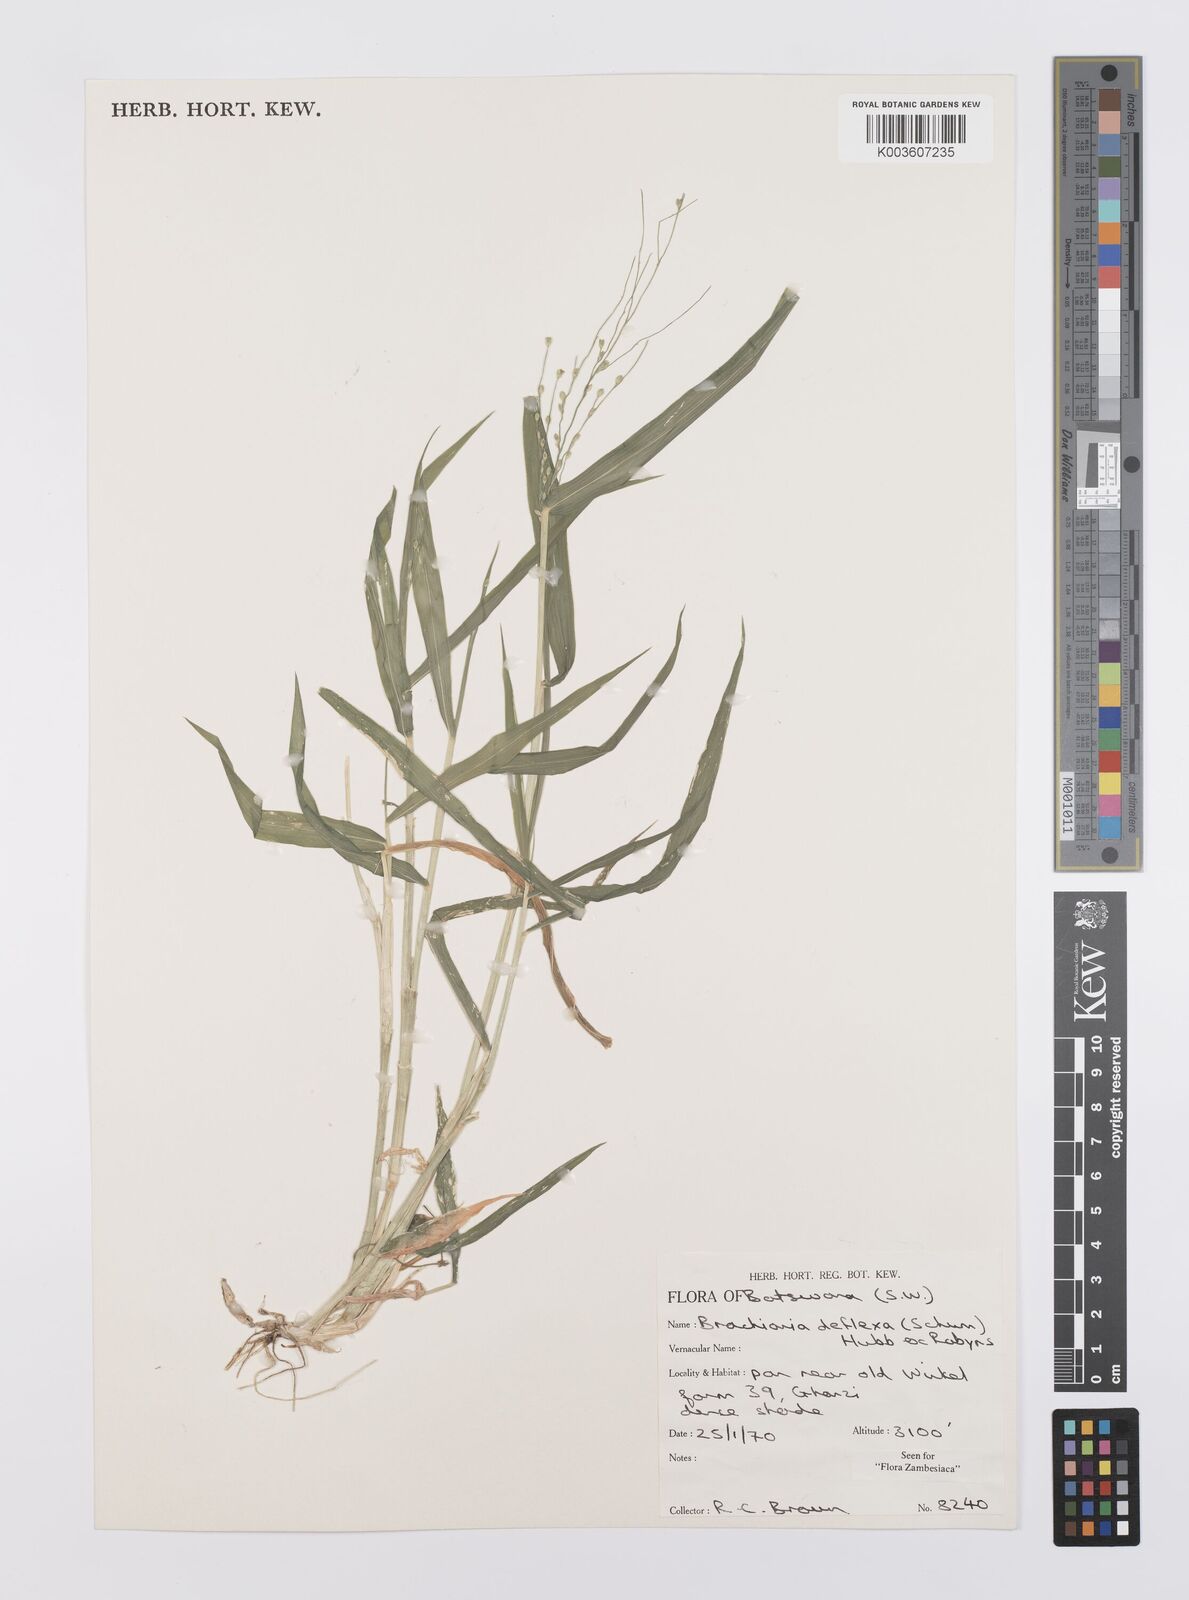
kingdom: Plantae
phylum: Tracheophyta
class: Liliopsida
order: Poales
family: Poaceae
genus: Urochloa
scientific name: Urochloa deflexa
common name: Guinea millet
